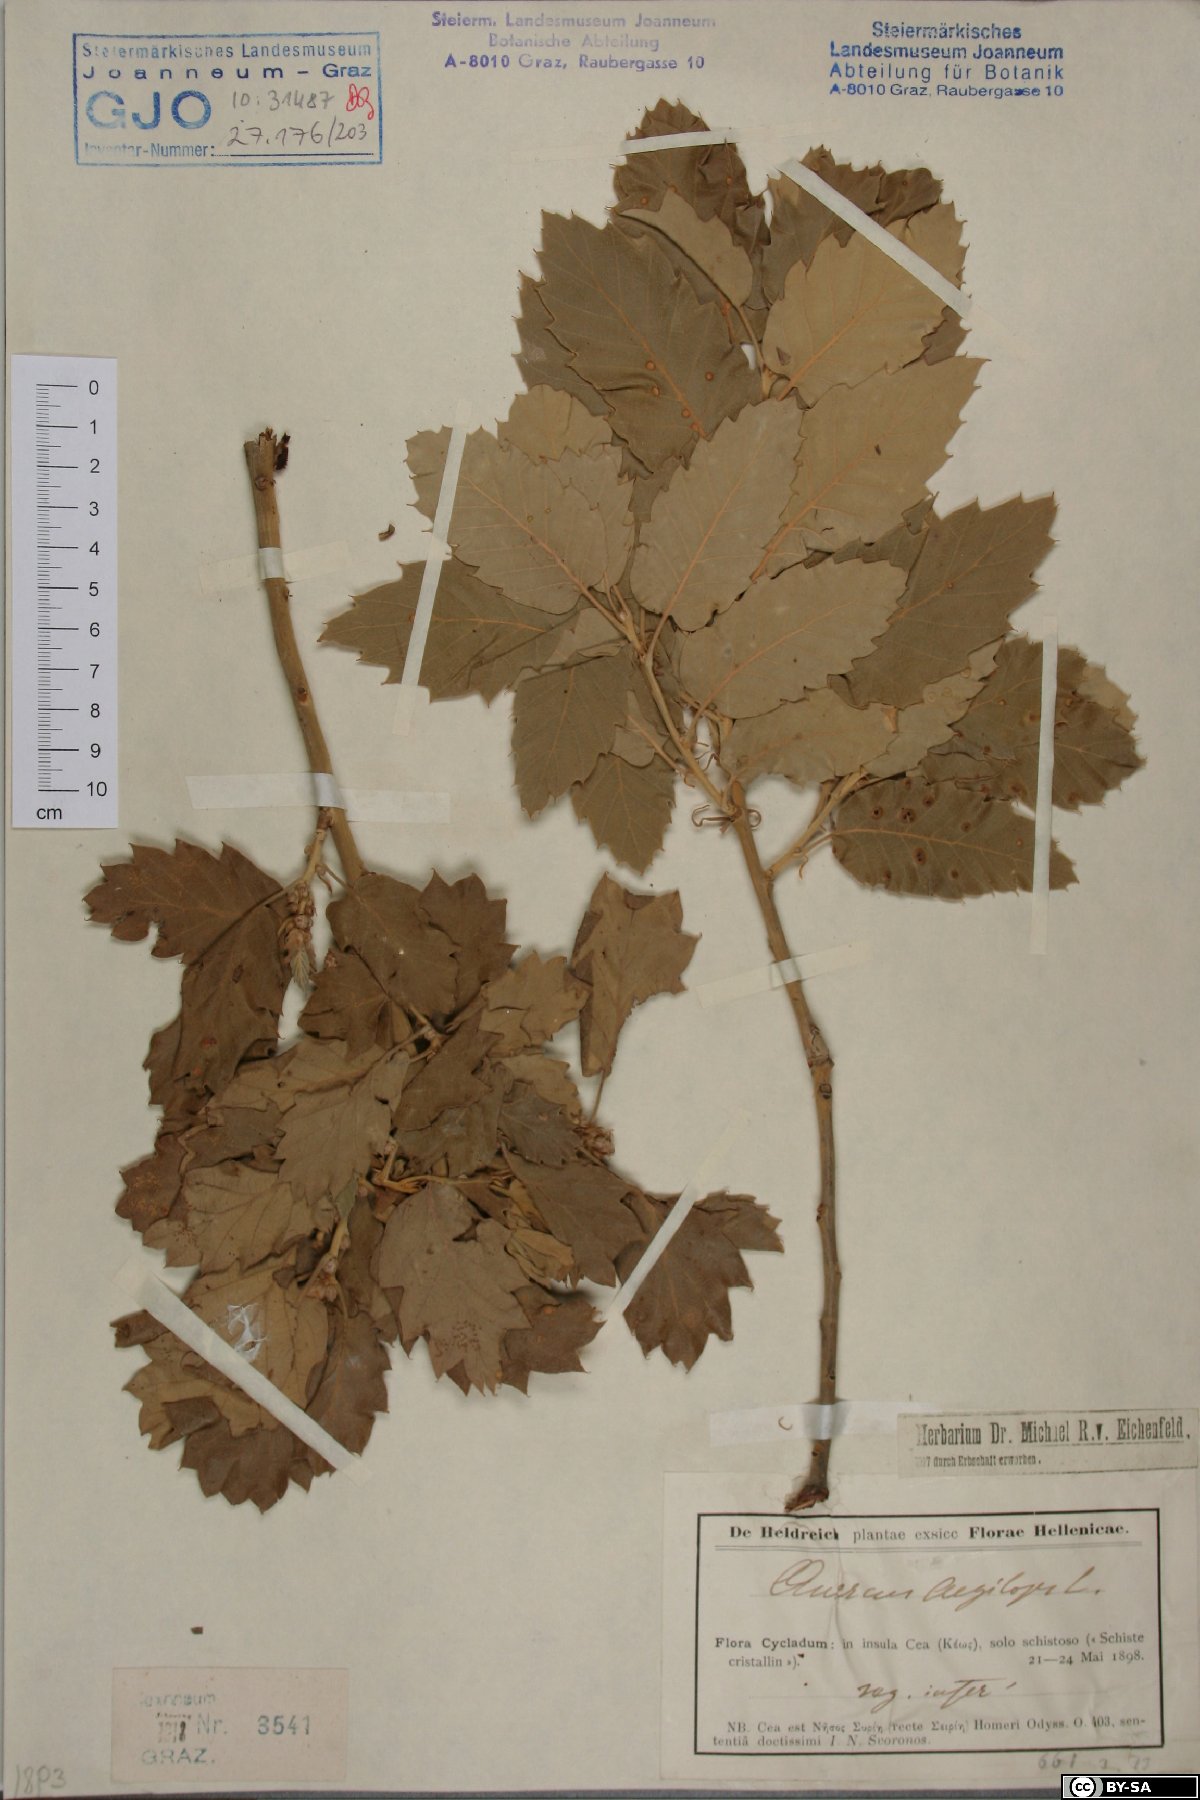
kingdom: Plantae
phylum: Tracheophyta
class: Magnoliopsida
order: Fagales
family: Fagaceae
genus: Quercus
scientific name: Quercus ithaburensis
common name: Tabor oak
